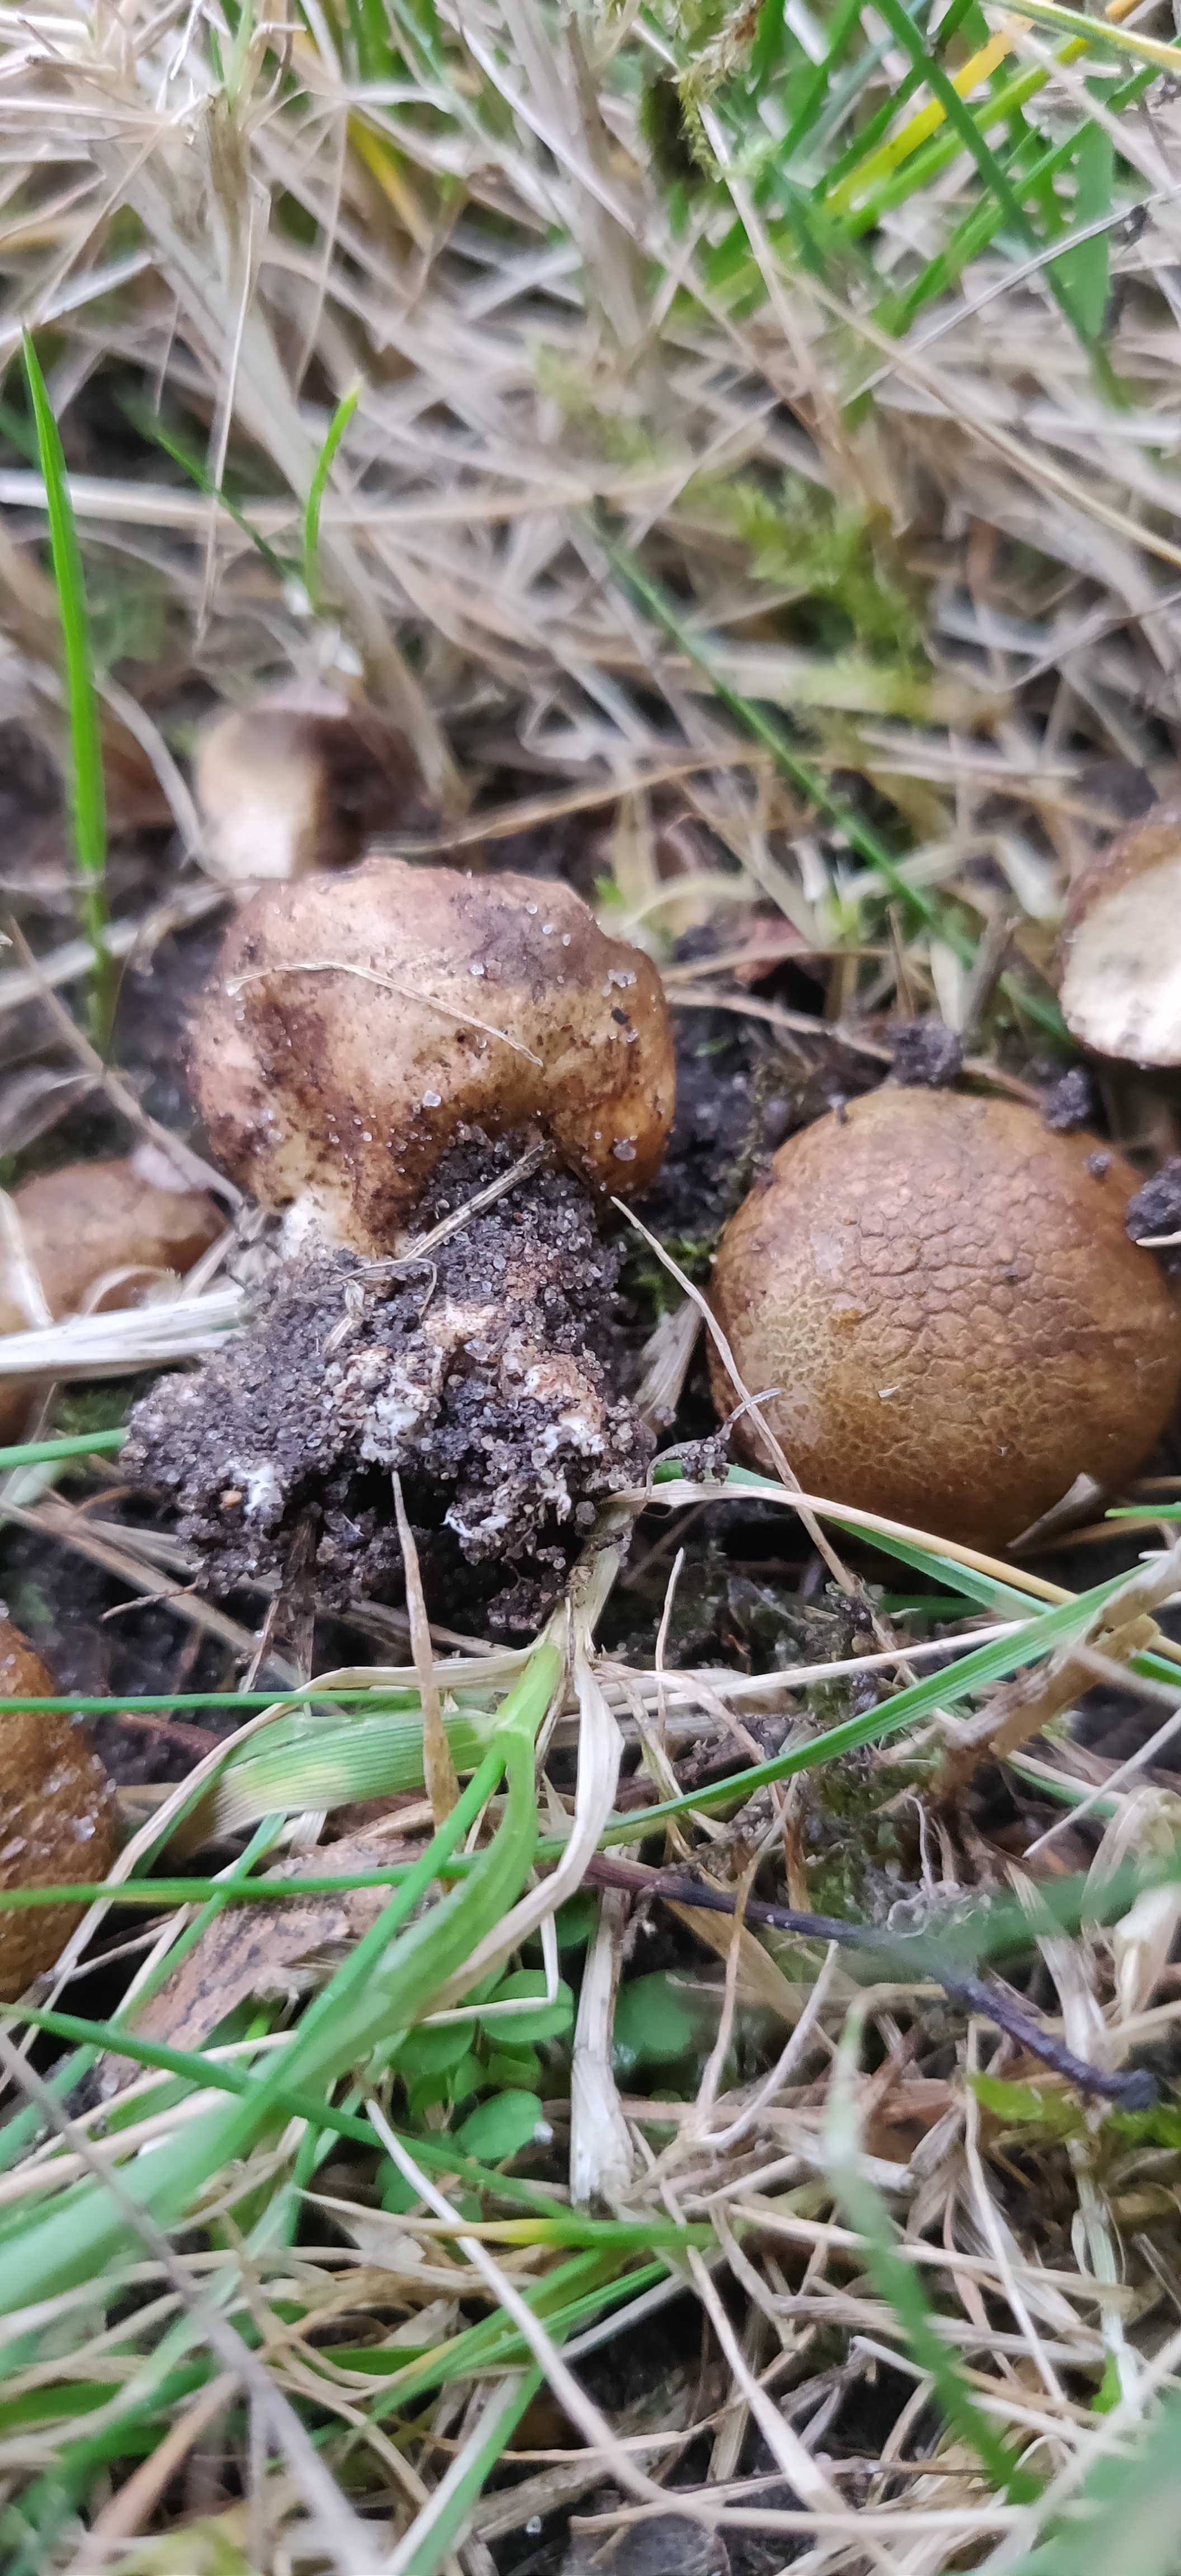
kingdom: Fungi
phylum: Basidiomycota
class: Agaricomycetes
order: Boletales
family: Sclerodermataceae
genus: Scleroderma
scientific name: Scleroderma verrucosum
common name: stilket bruskbold
